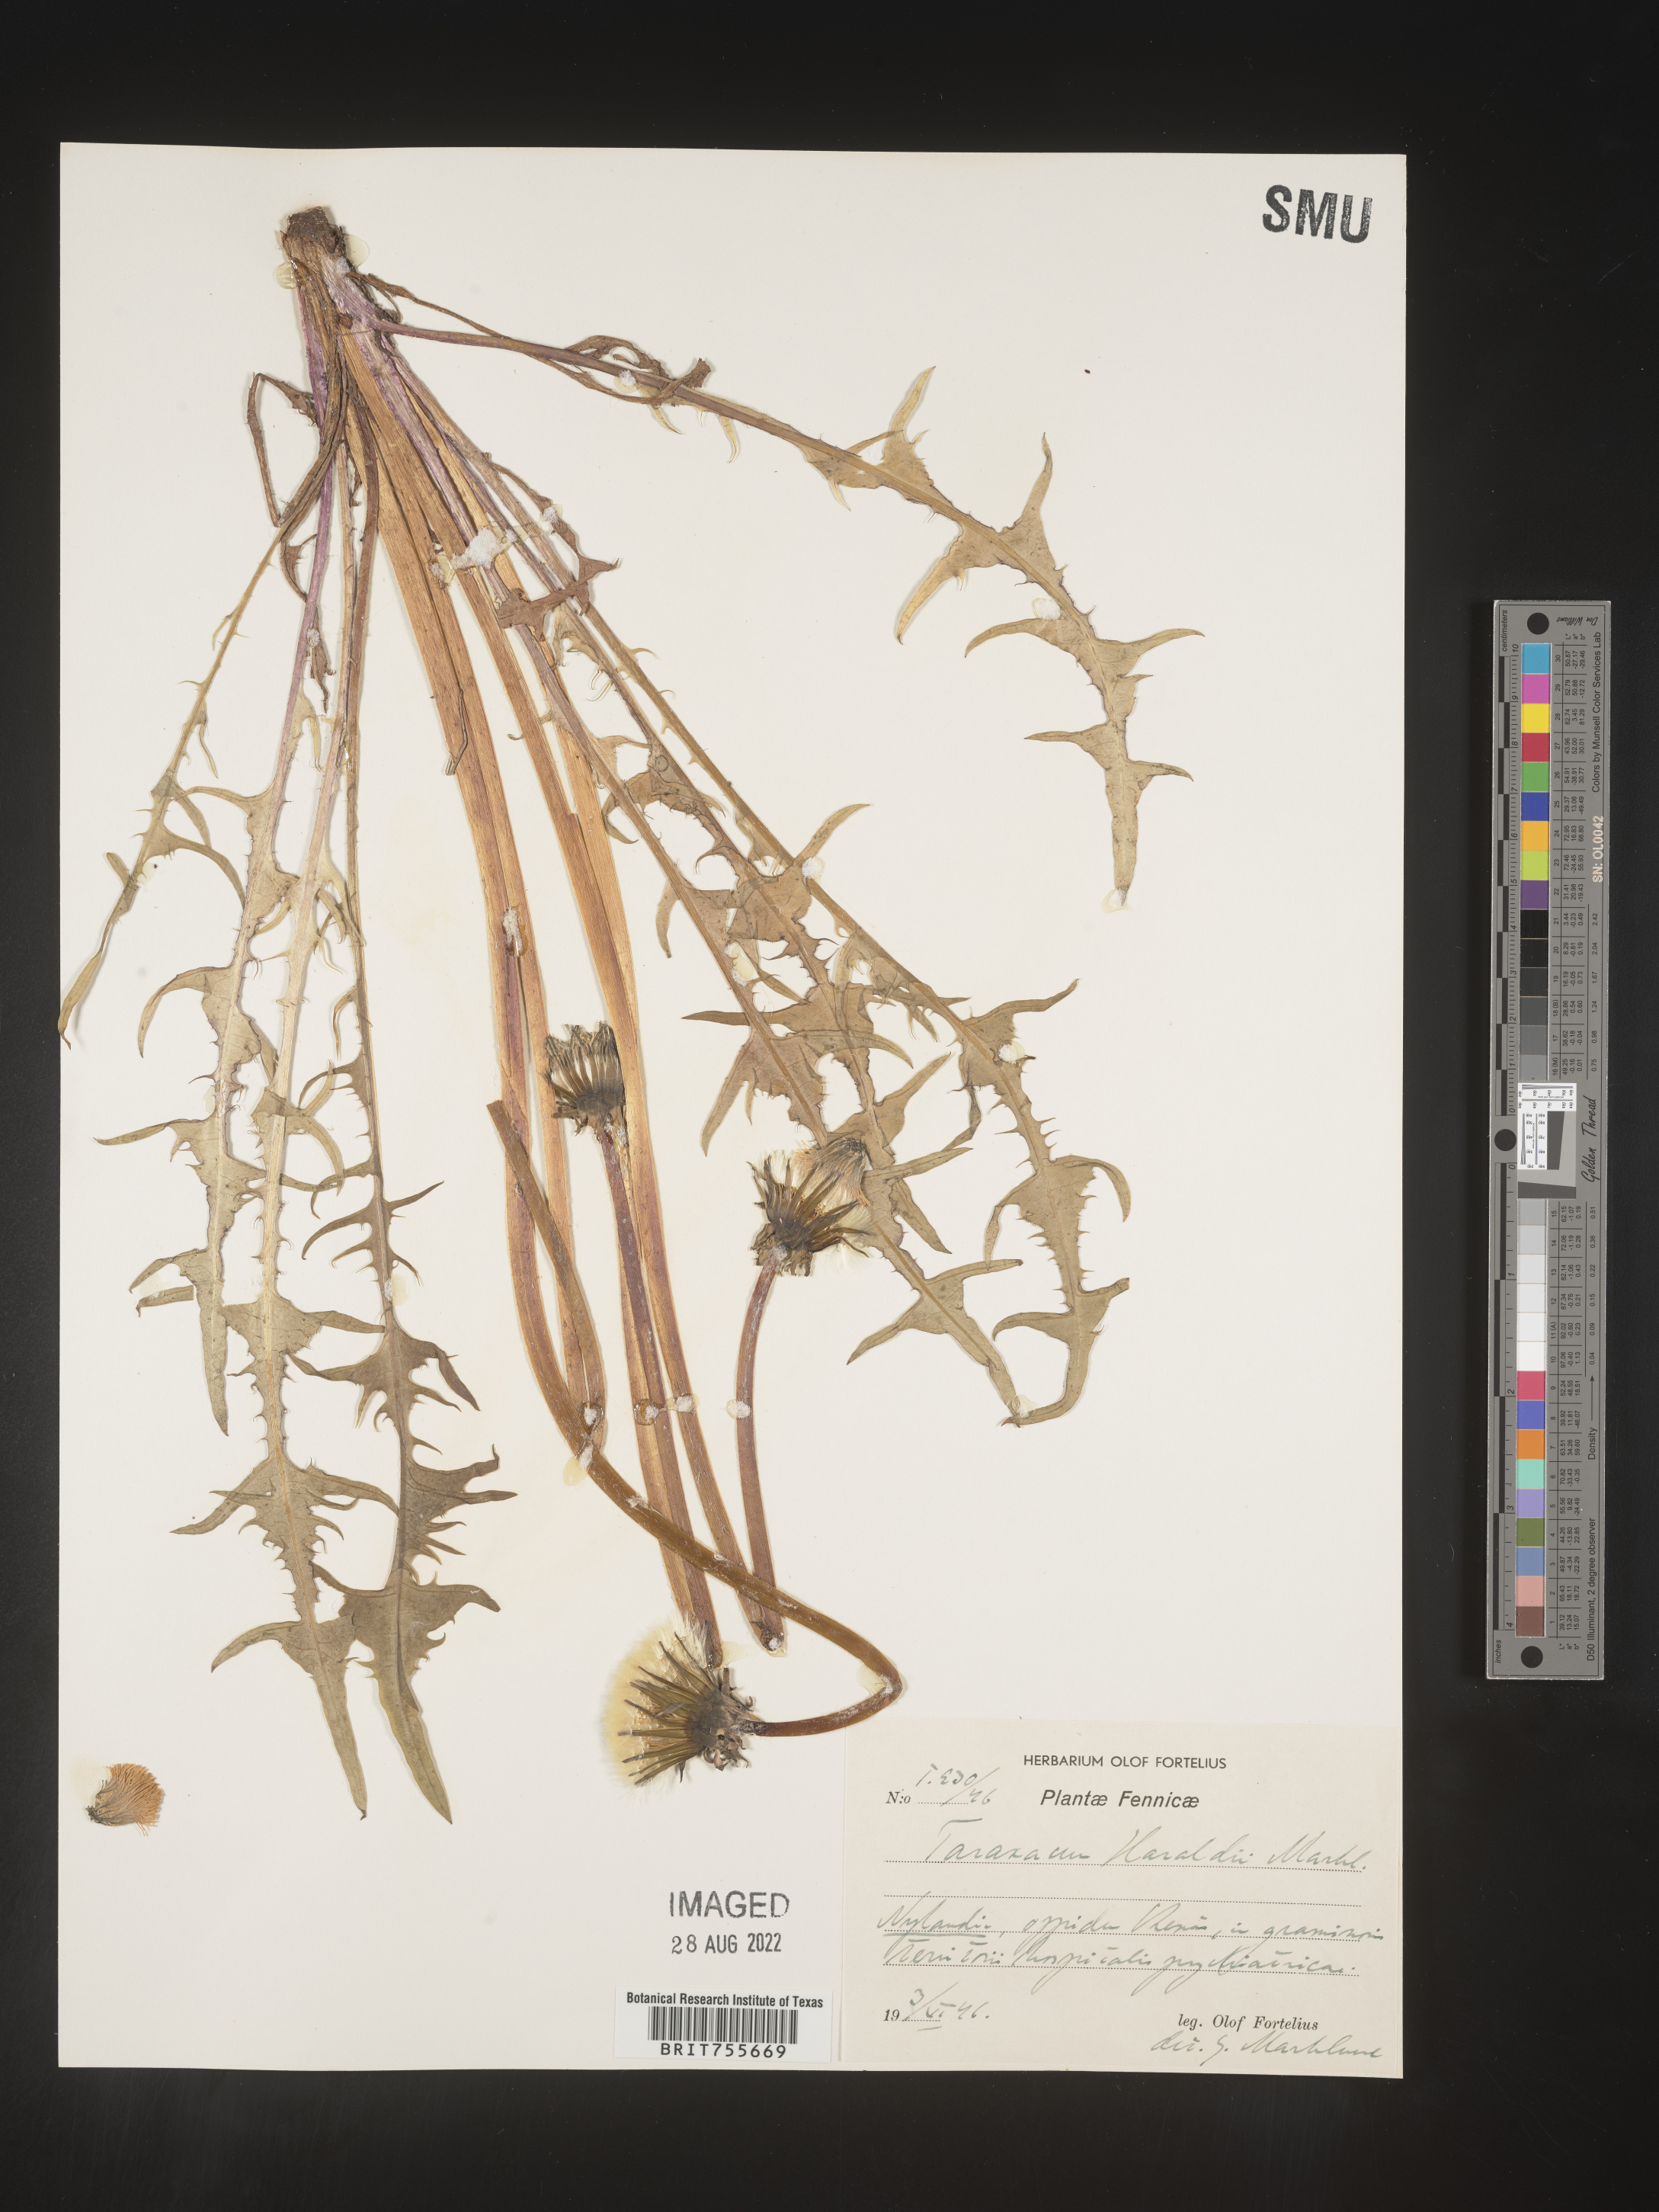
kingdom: Plantae
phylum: Tracheophyta
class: Magnoliopsida
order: Asterales
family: Asteraceae
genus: Taraxacum
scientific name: Taraxacum
